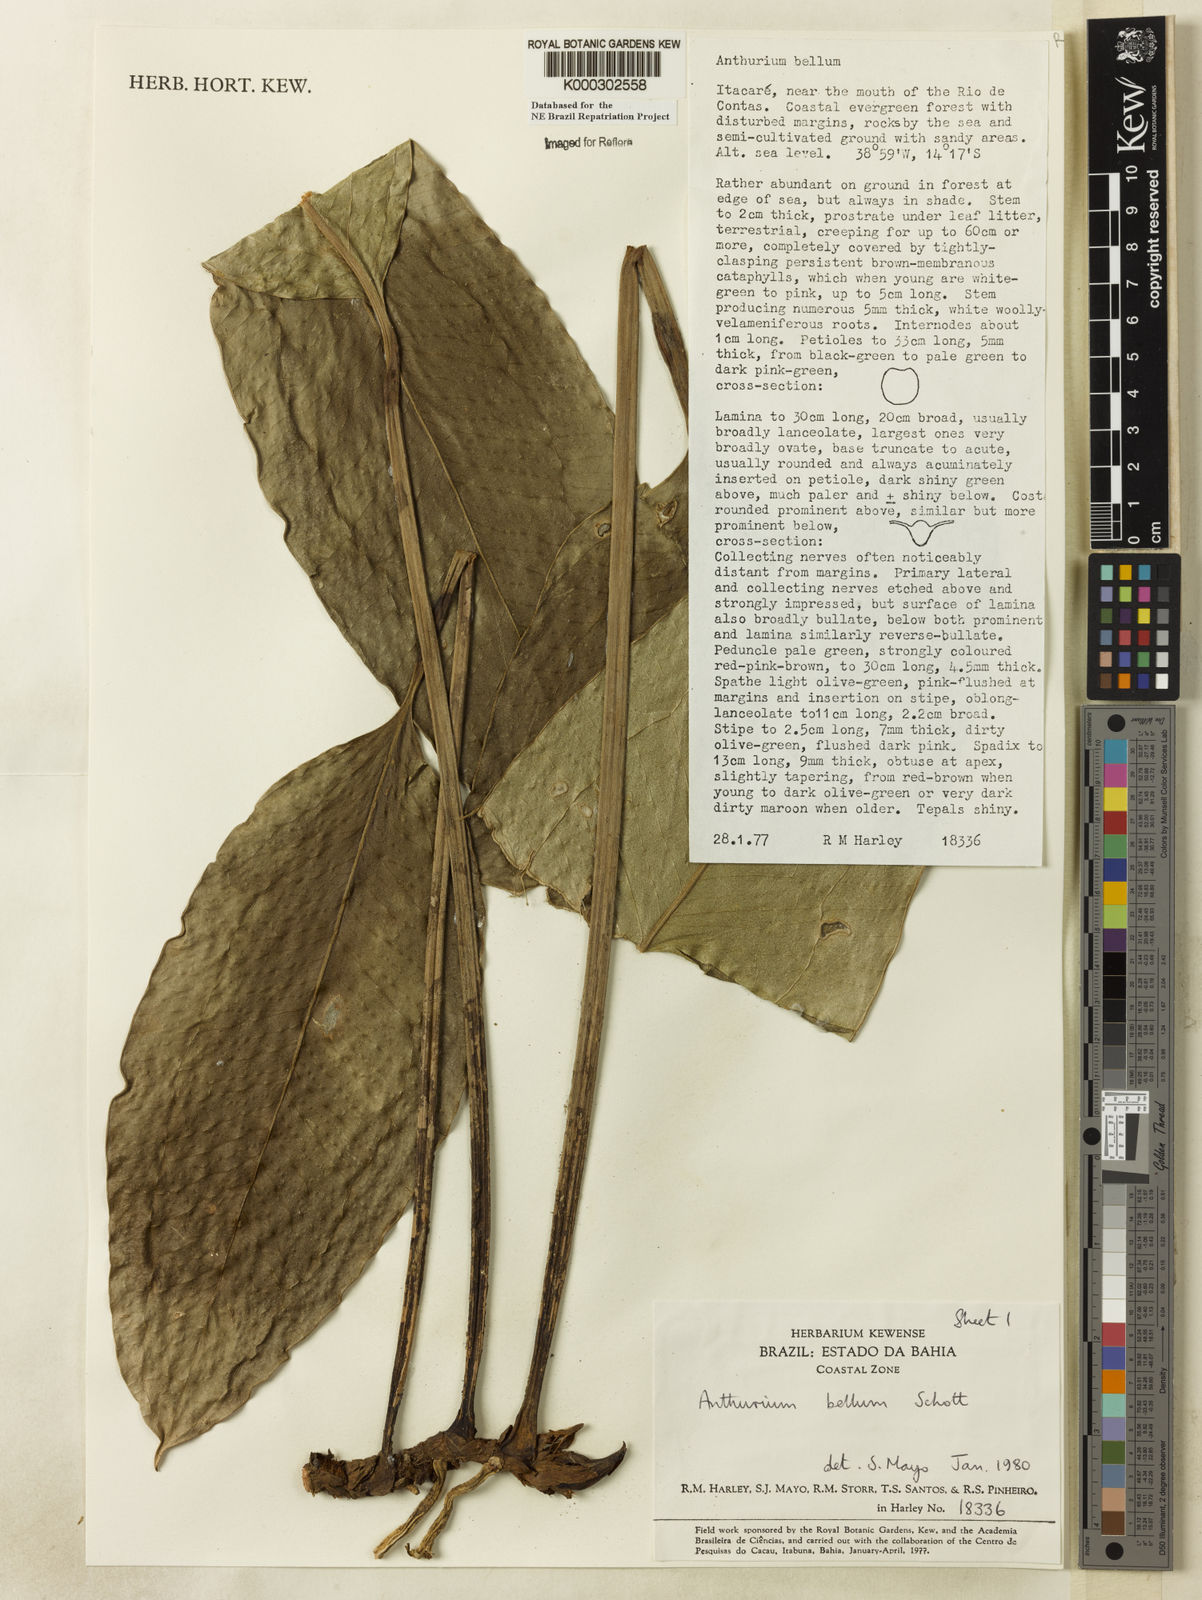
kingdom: Plantae
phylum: Tracheophyta
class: Liliopsida
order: Alismatales
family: Araceae
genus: Anthurium
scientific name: Anthurium bellum
